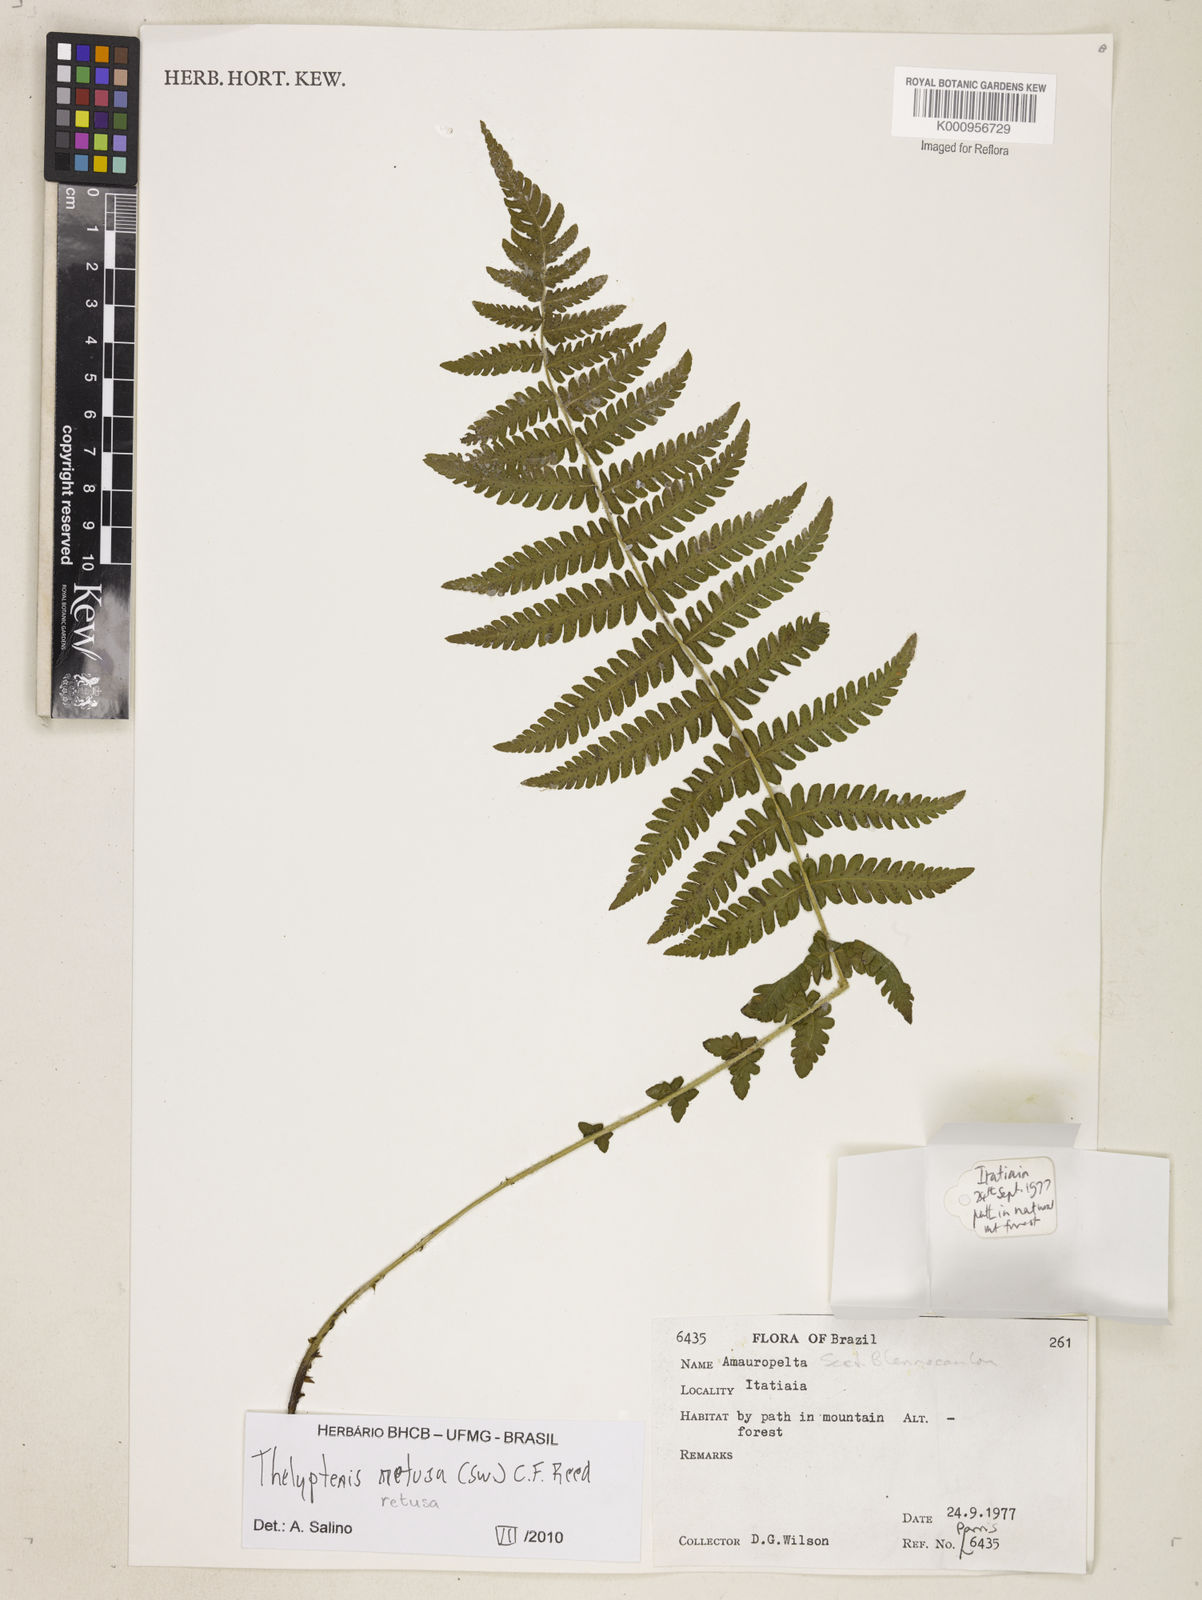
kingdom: Plantae
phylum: Tracheophyta
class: Polypodiopsida
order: Polypodiales
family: Thelypteridaceae
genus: Amauropelta
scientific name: Amauropelta retusa
